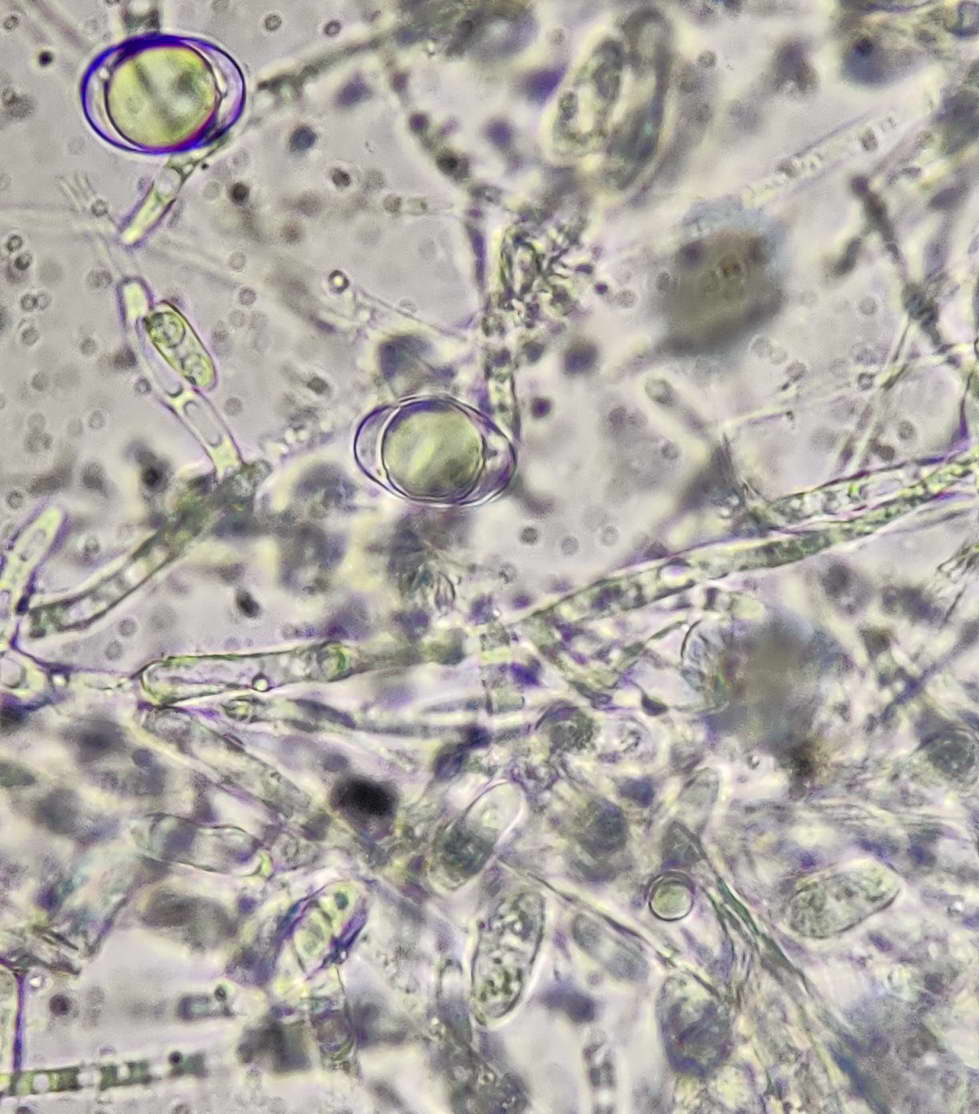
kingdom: Fungi
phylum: Ascomycota
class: Pezizomycetes
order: Pezizales
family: Helvellaceae
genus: Helvella
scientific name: Helvella
